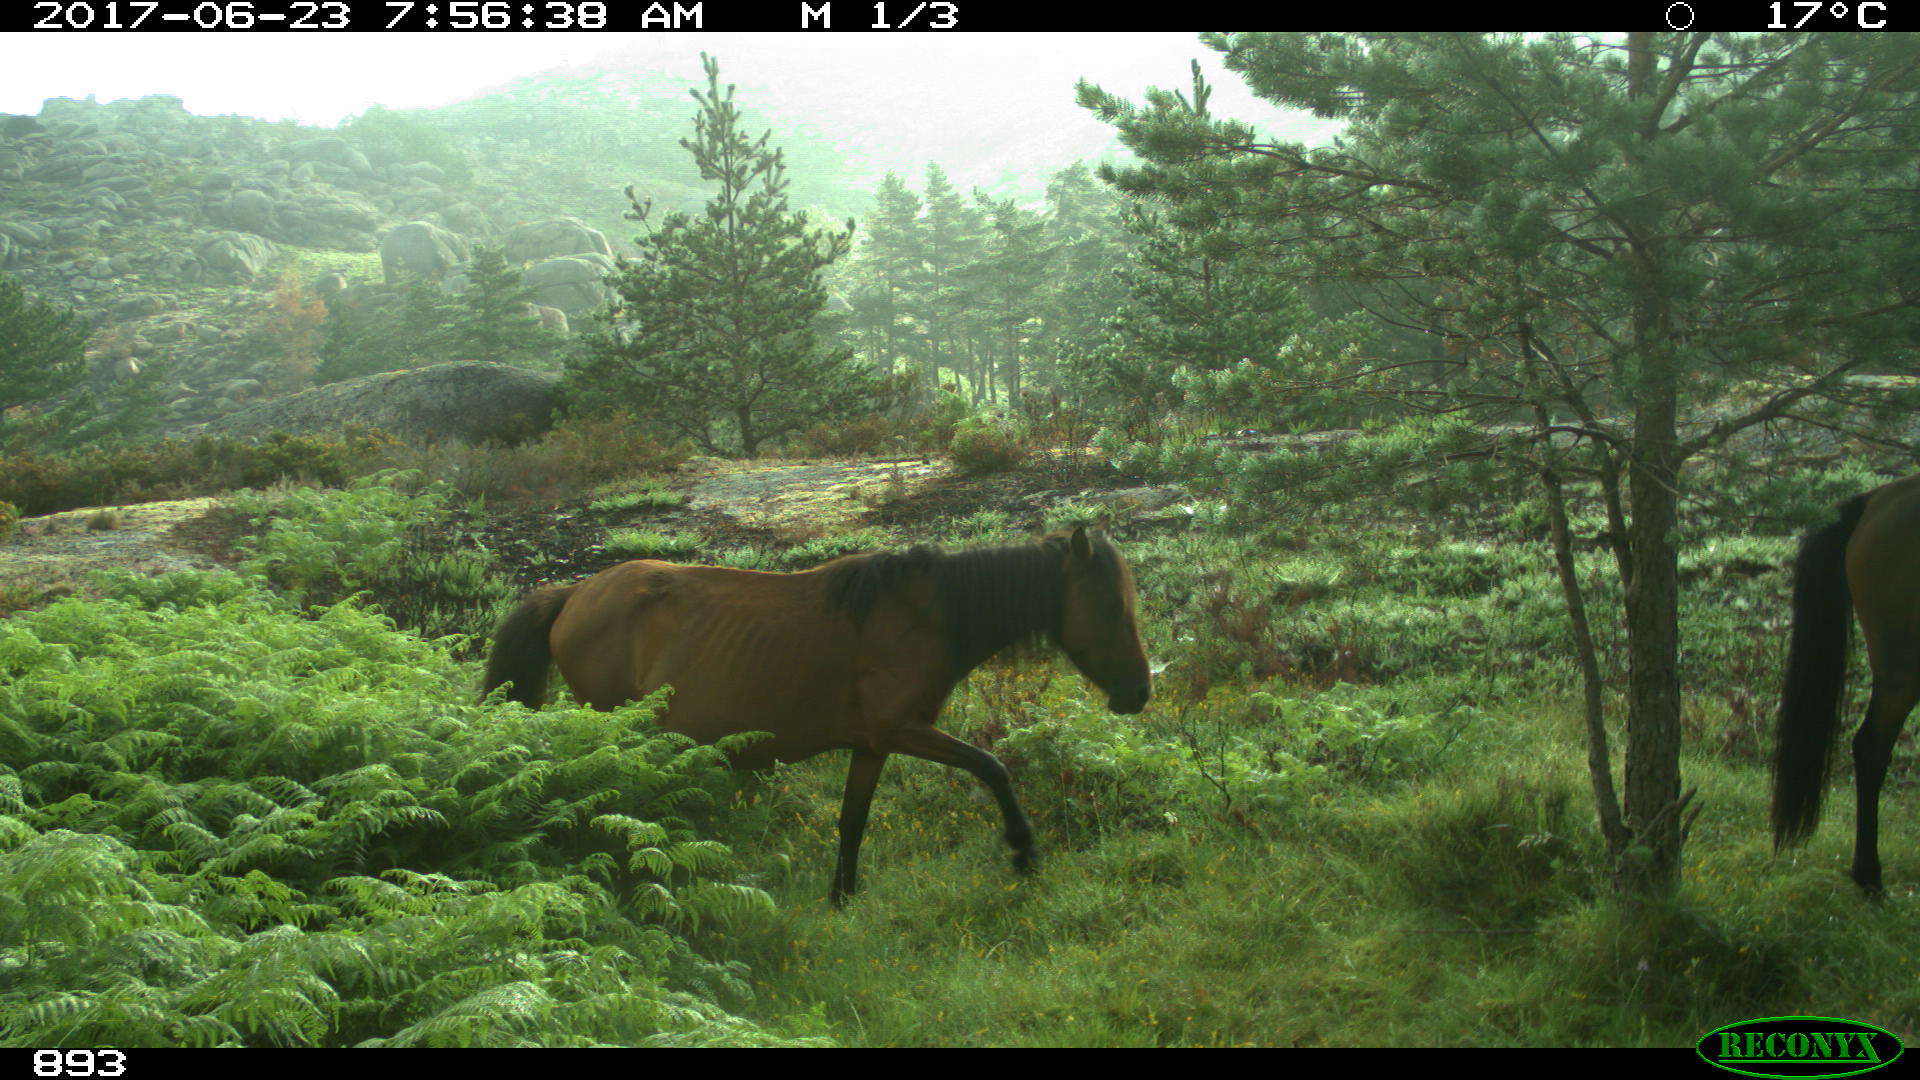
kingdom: Animalia
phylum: Chordata
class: Mammalia
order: Perissodactyla
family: Equidae
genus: Equus
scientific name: Equus caballus
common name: Horse
